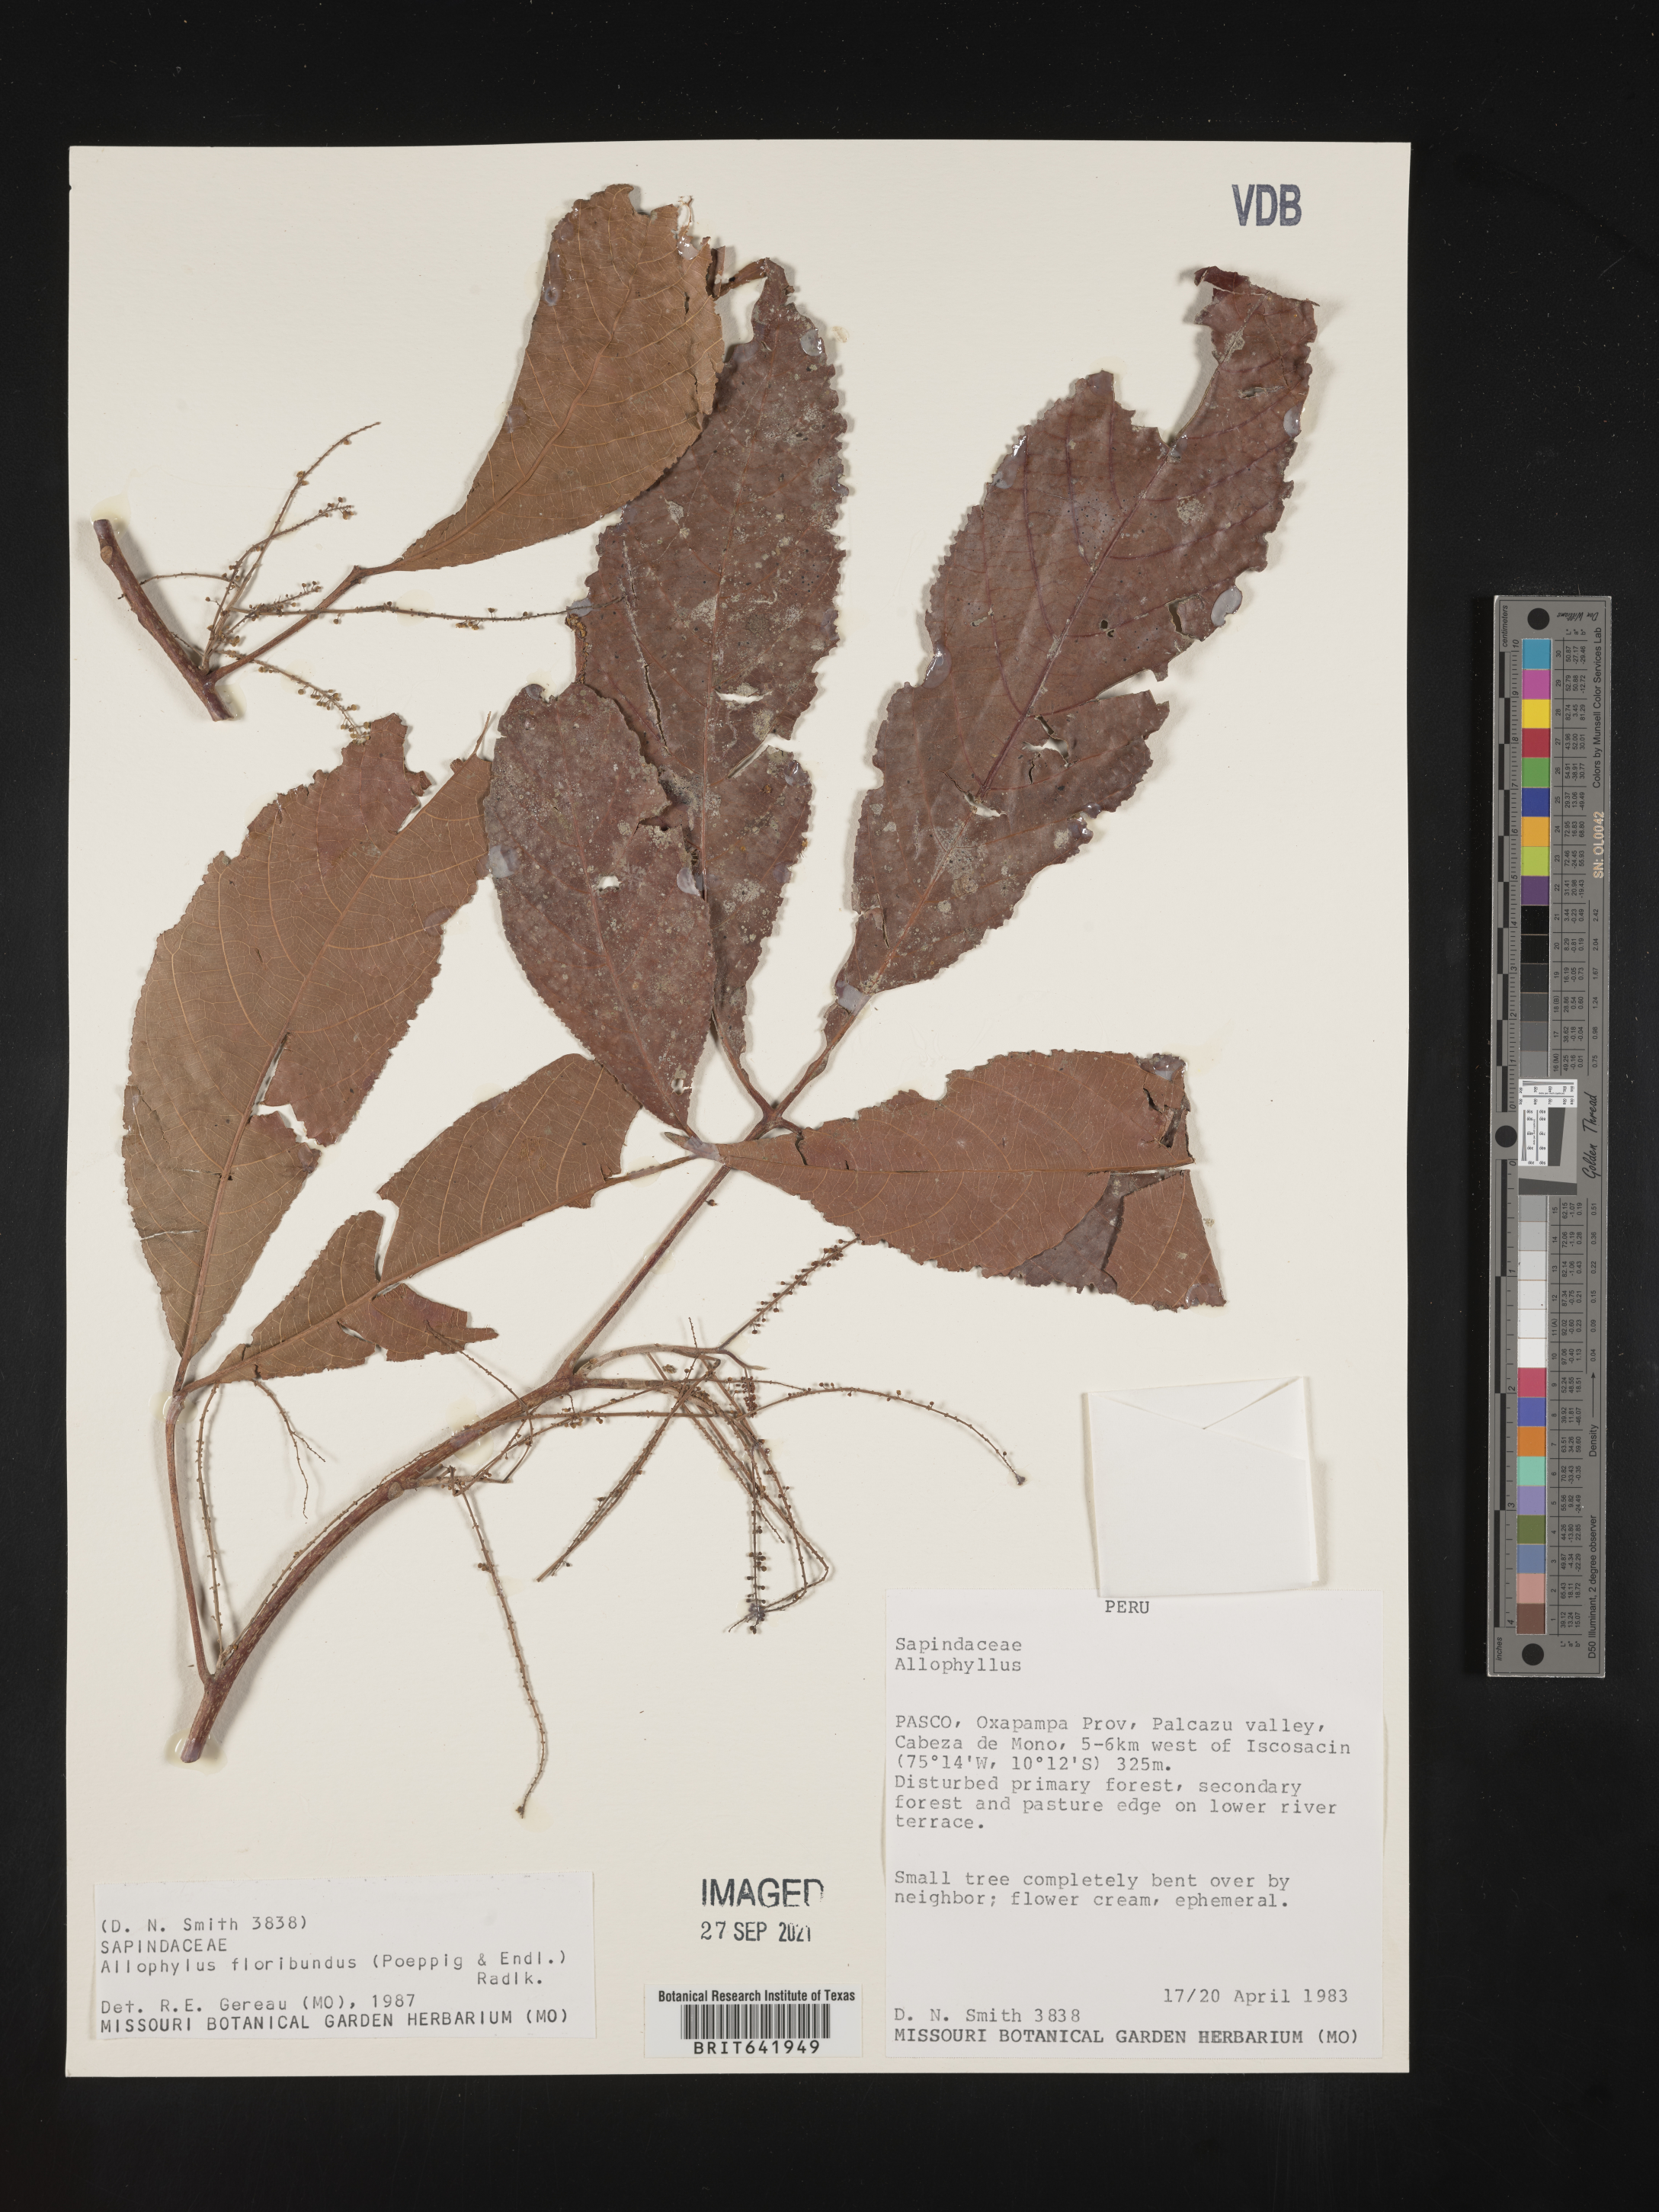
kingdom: Plantae
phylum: Tracheophyta
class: Magnoliopsida
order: Sapindales
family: Sapindaceae
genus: Allophylus
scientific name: Allophylus
